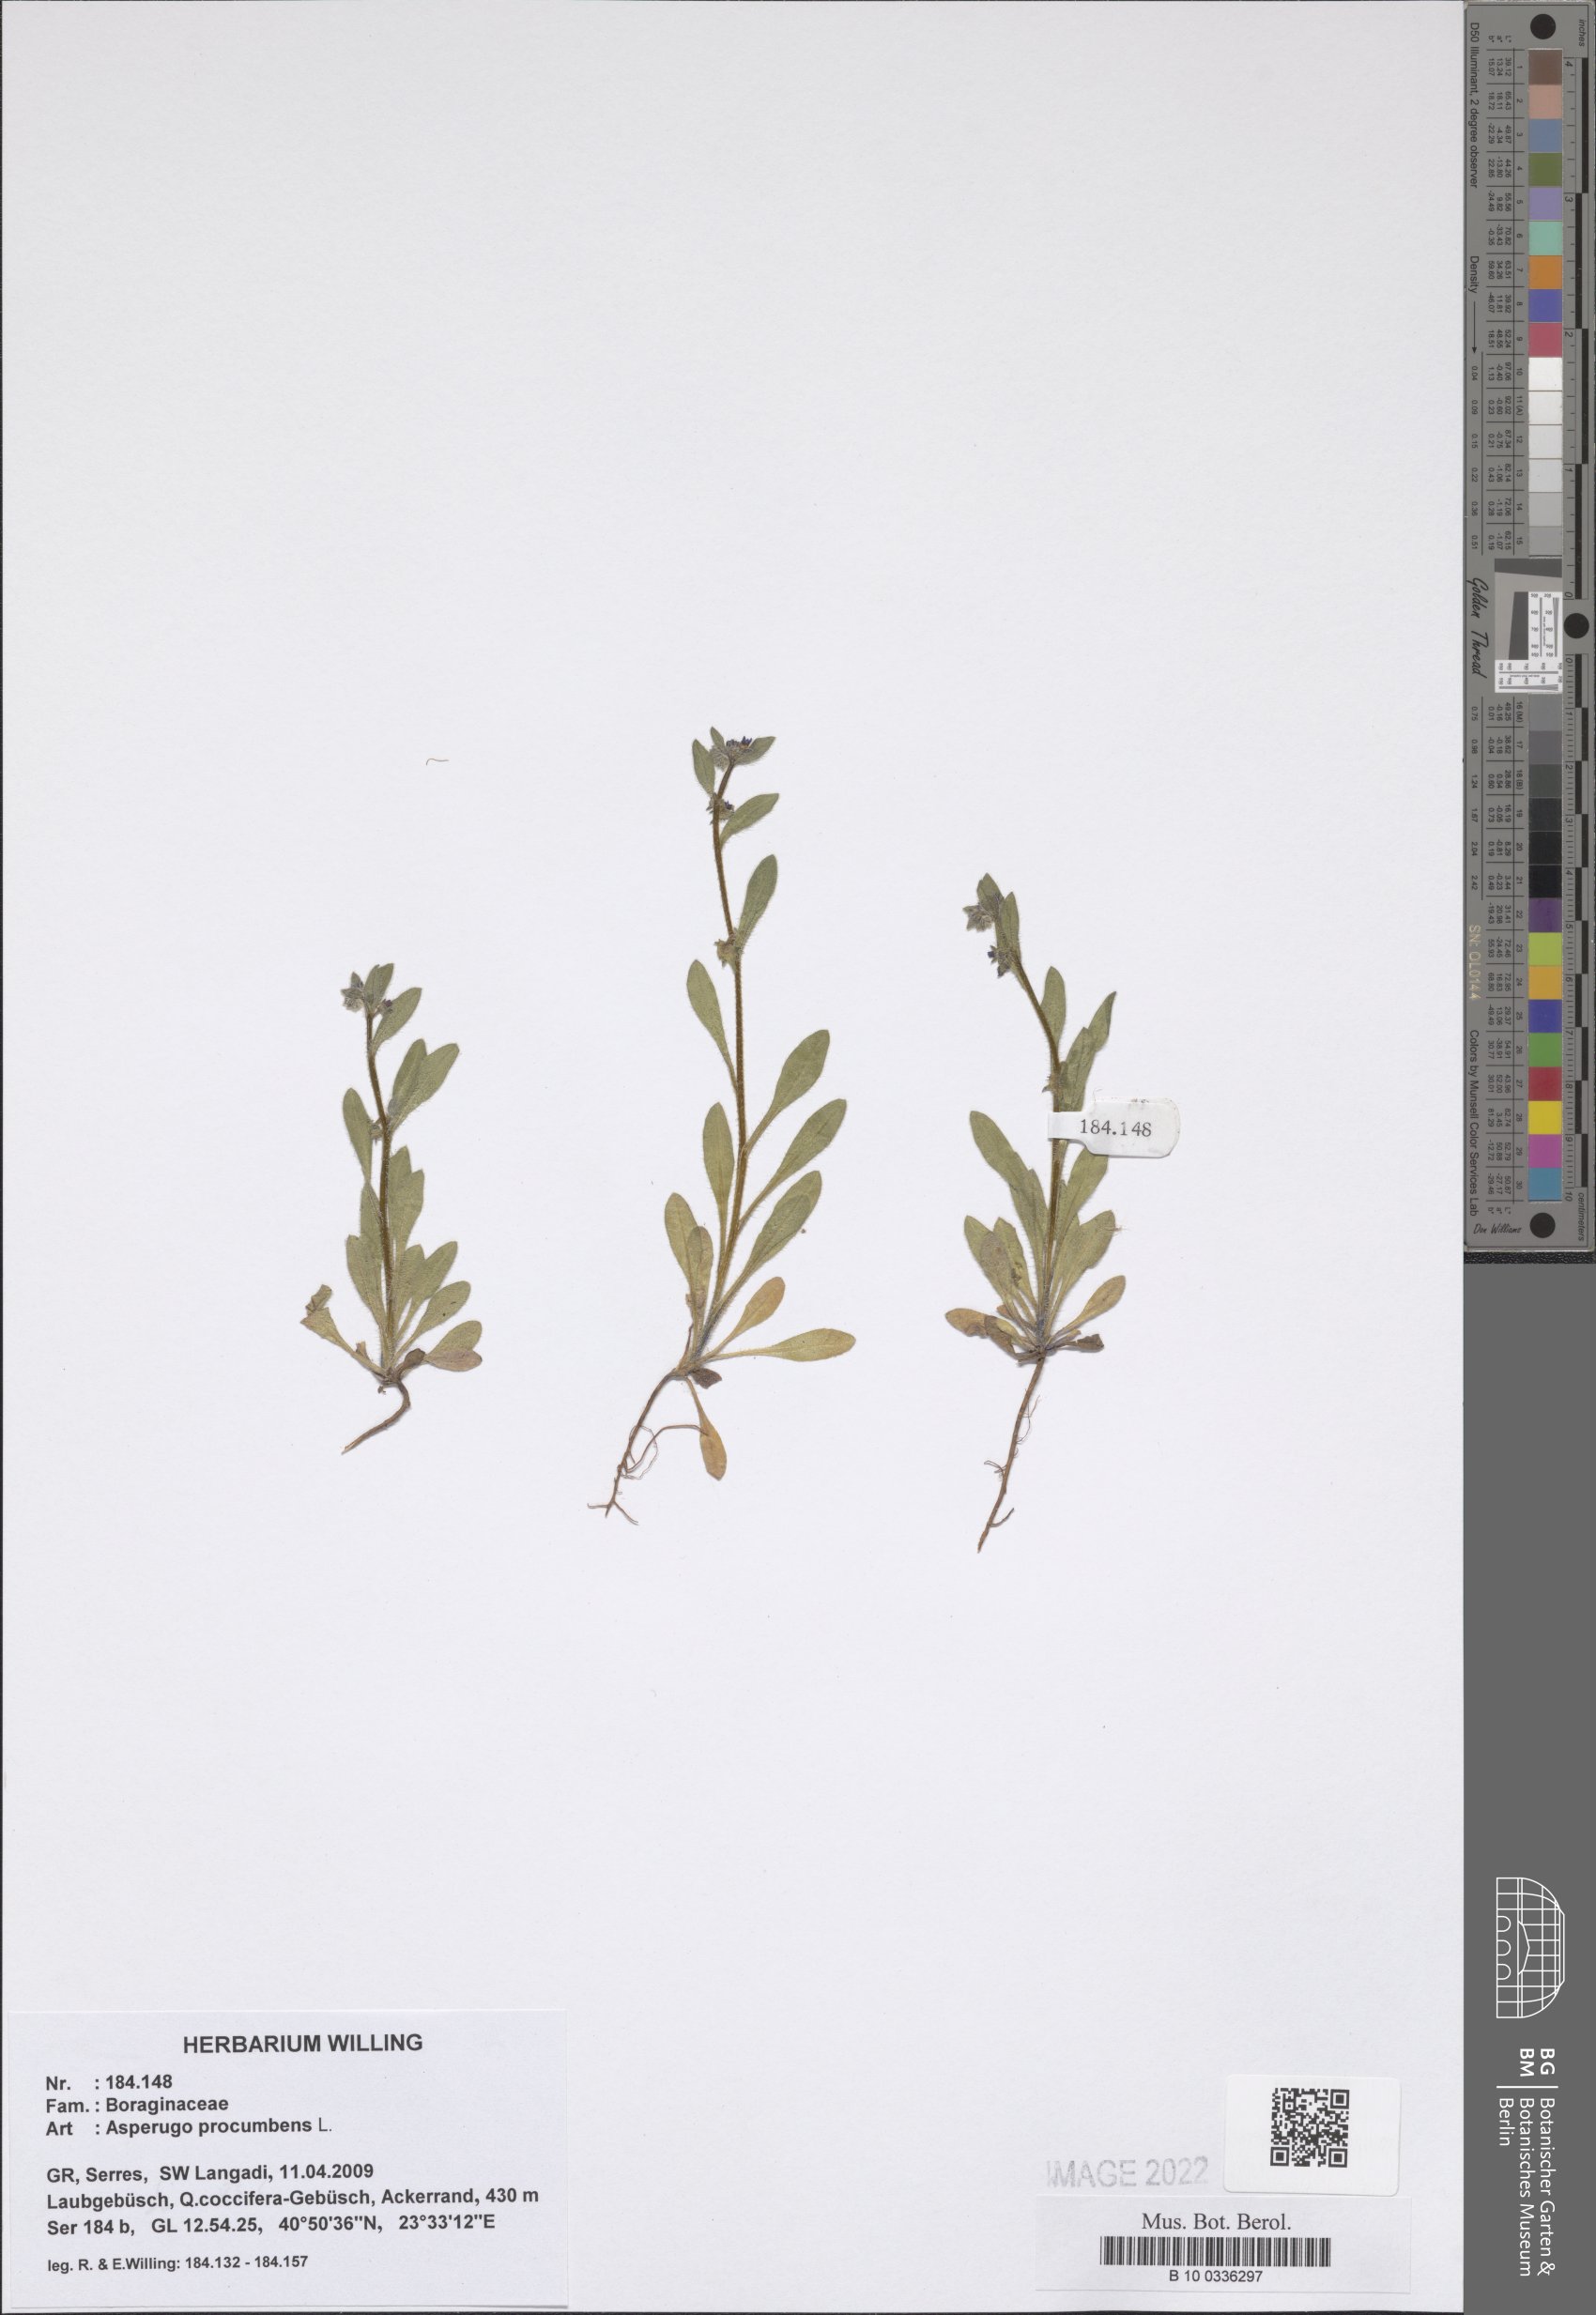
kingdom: Plantae
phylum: Tracheophyta
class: Magnoliopsida
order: Boraginales
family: Boraginaceae
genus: Asperugo
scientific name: Asperugo procumbens
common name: Madwort
